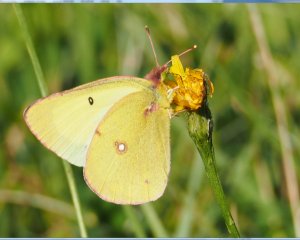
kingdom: Animalia
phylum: Arthropoda
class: Insecta
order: Lepidoptera
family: Pieridae
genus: Colias
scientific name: Colias philodice
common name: Clouded Sulphur
